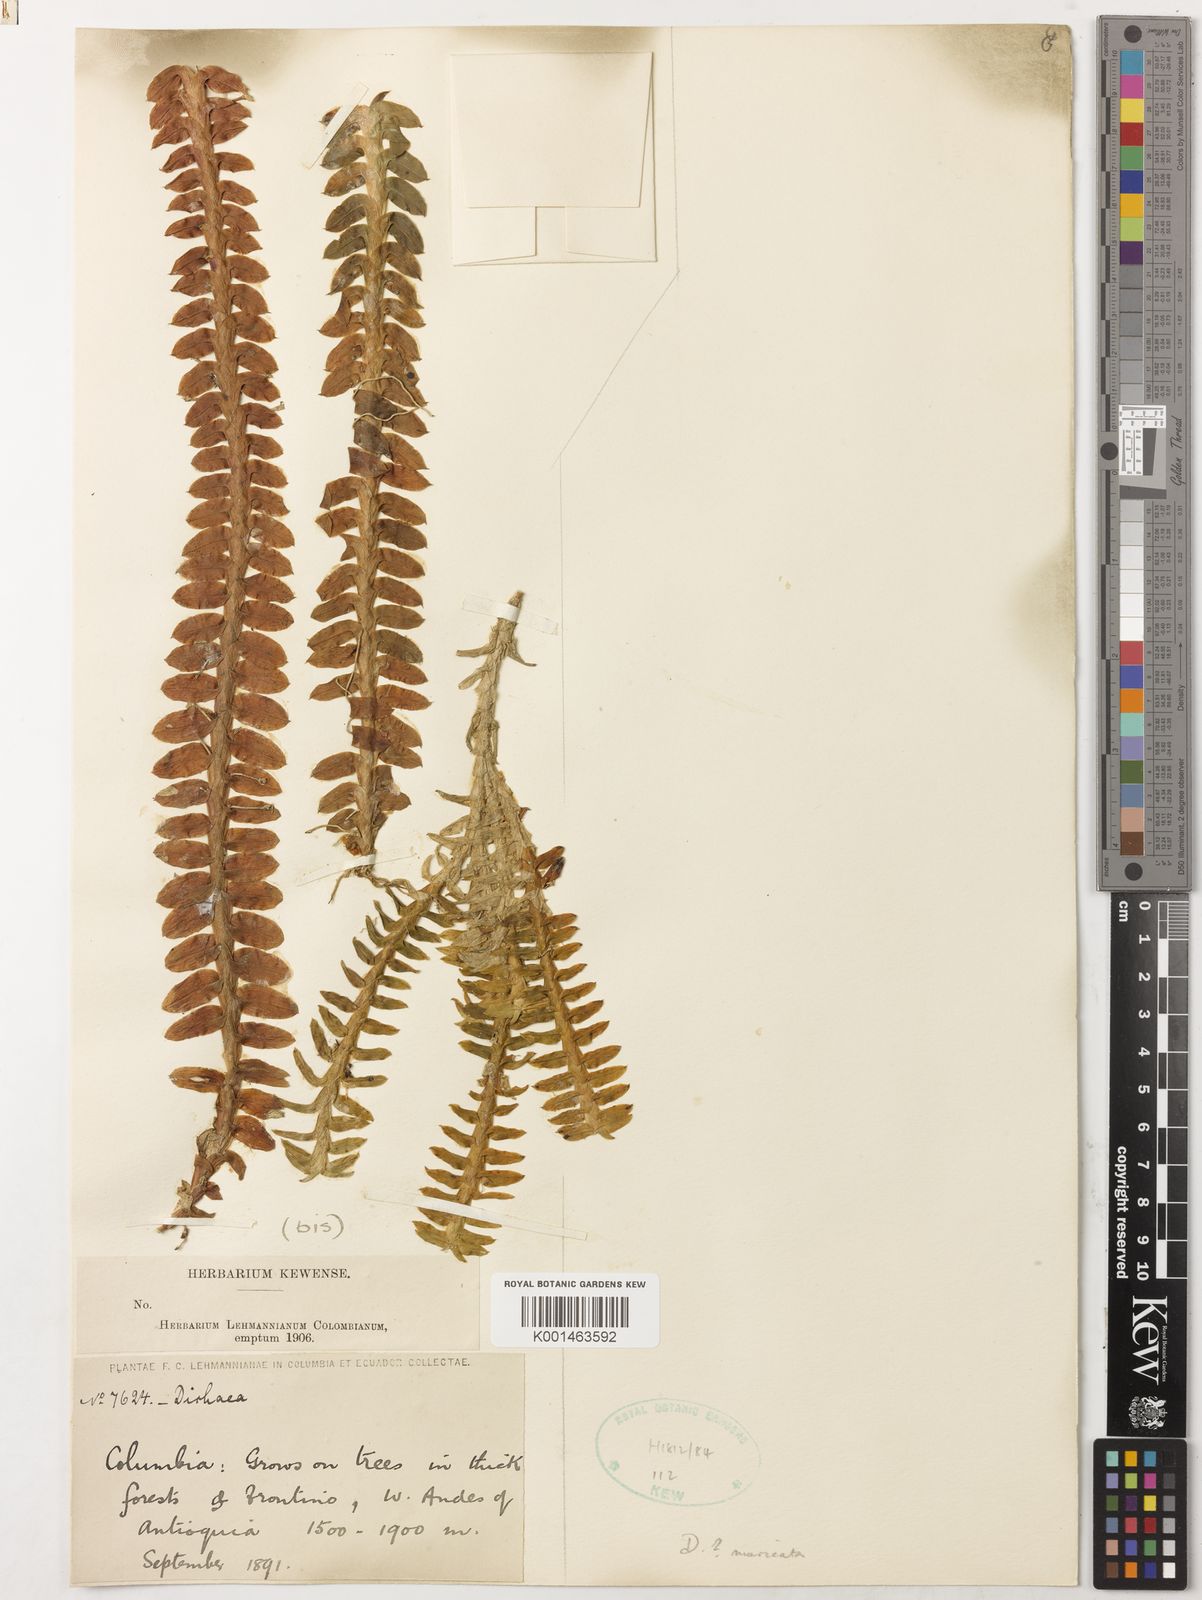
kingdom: Plantae
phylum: Tracheophyta
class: Liliopsida
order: Asparagales
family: Orchidaceae
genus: Dichaea
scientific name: Dichaea morrisii
